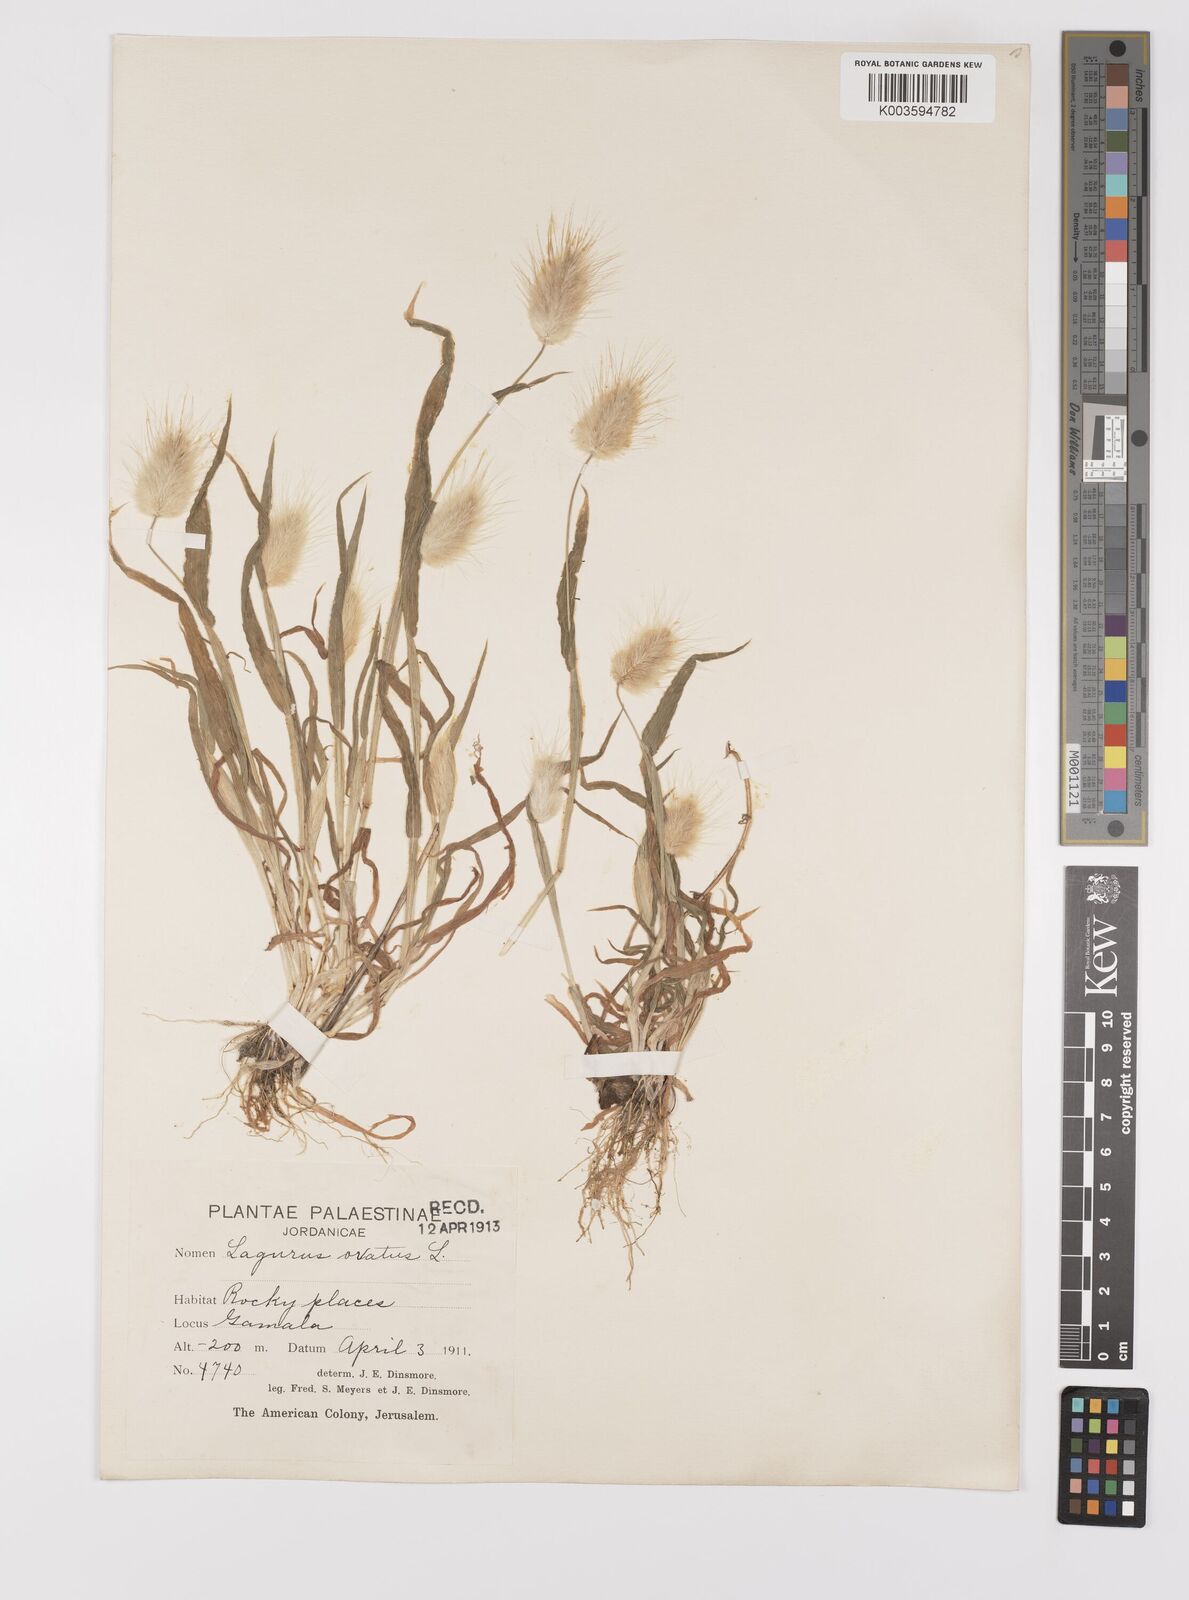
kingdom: Plantae
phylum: Tracheophyta
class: Liliopsida
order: Poales
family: Poaceae
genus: Lagurus
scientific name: Lagurus ovatus
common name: Hare's-tail
